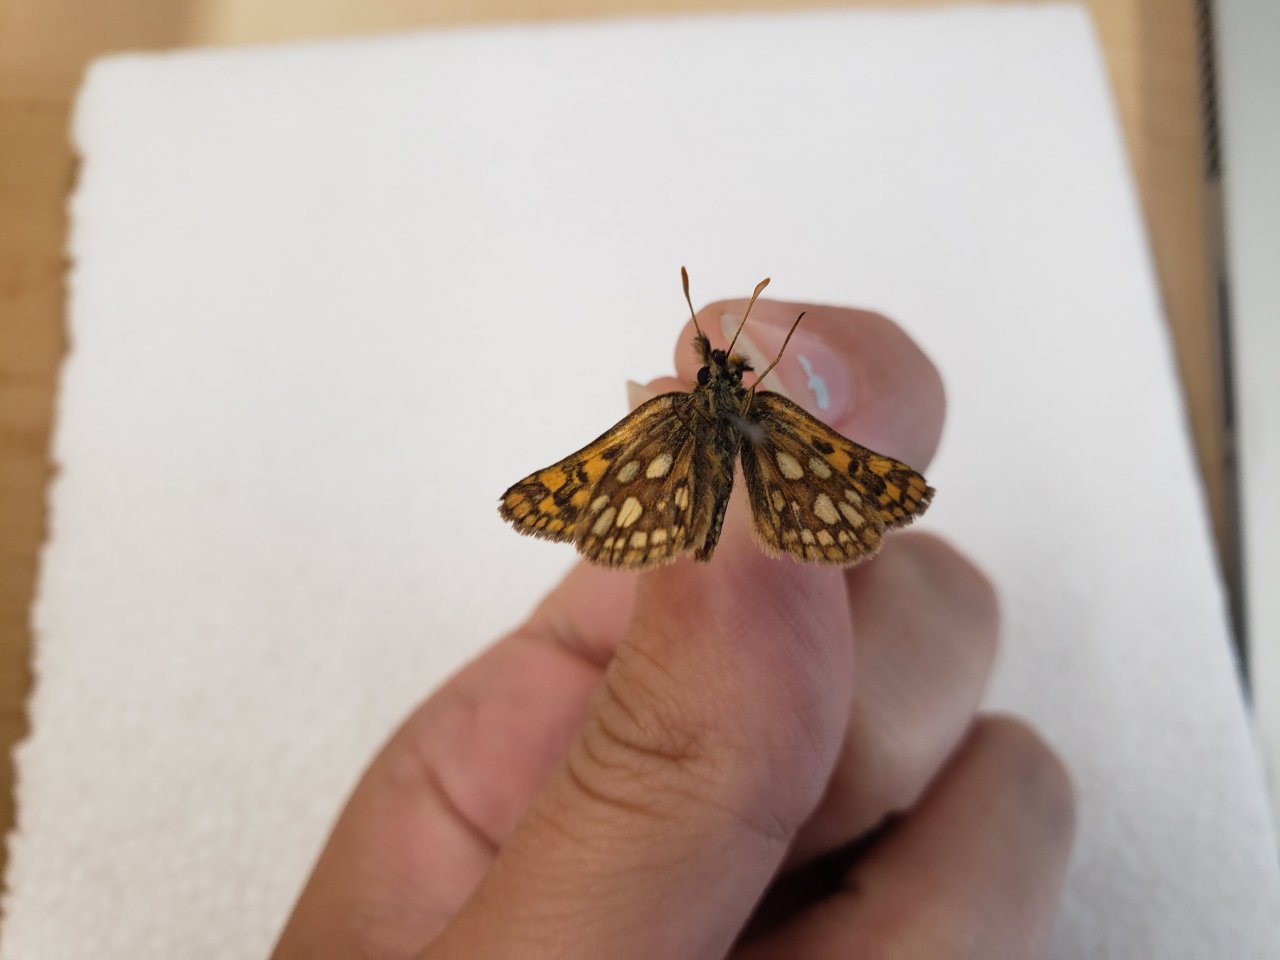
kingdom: Animalia
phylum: Arthropoda
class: Insecta
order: Lepidoptera
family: Hesperiidae
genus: Carterocephalus
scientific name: Carterocephalus palaemon
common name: Chequered Skipper
